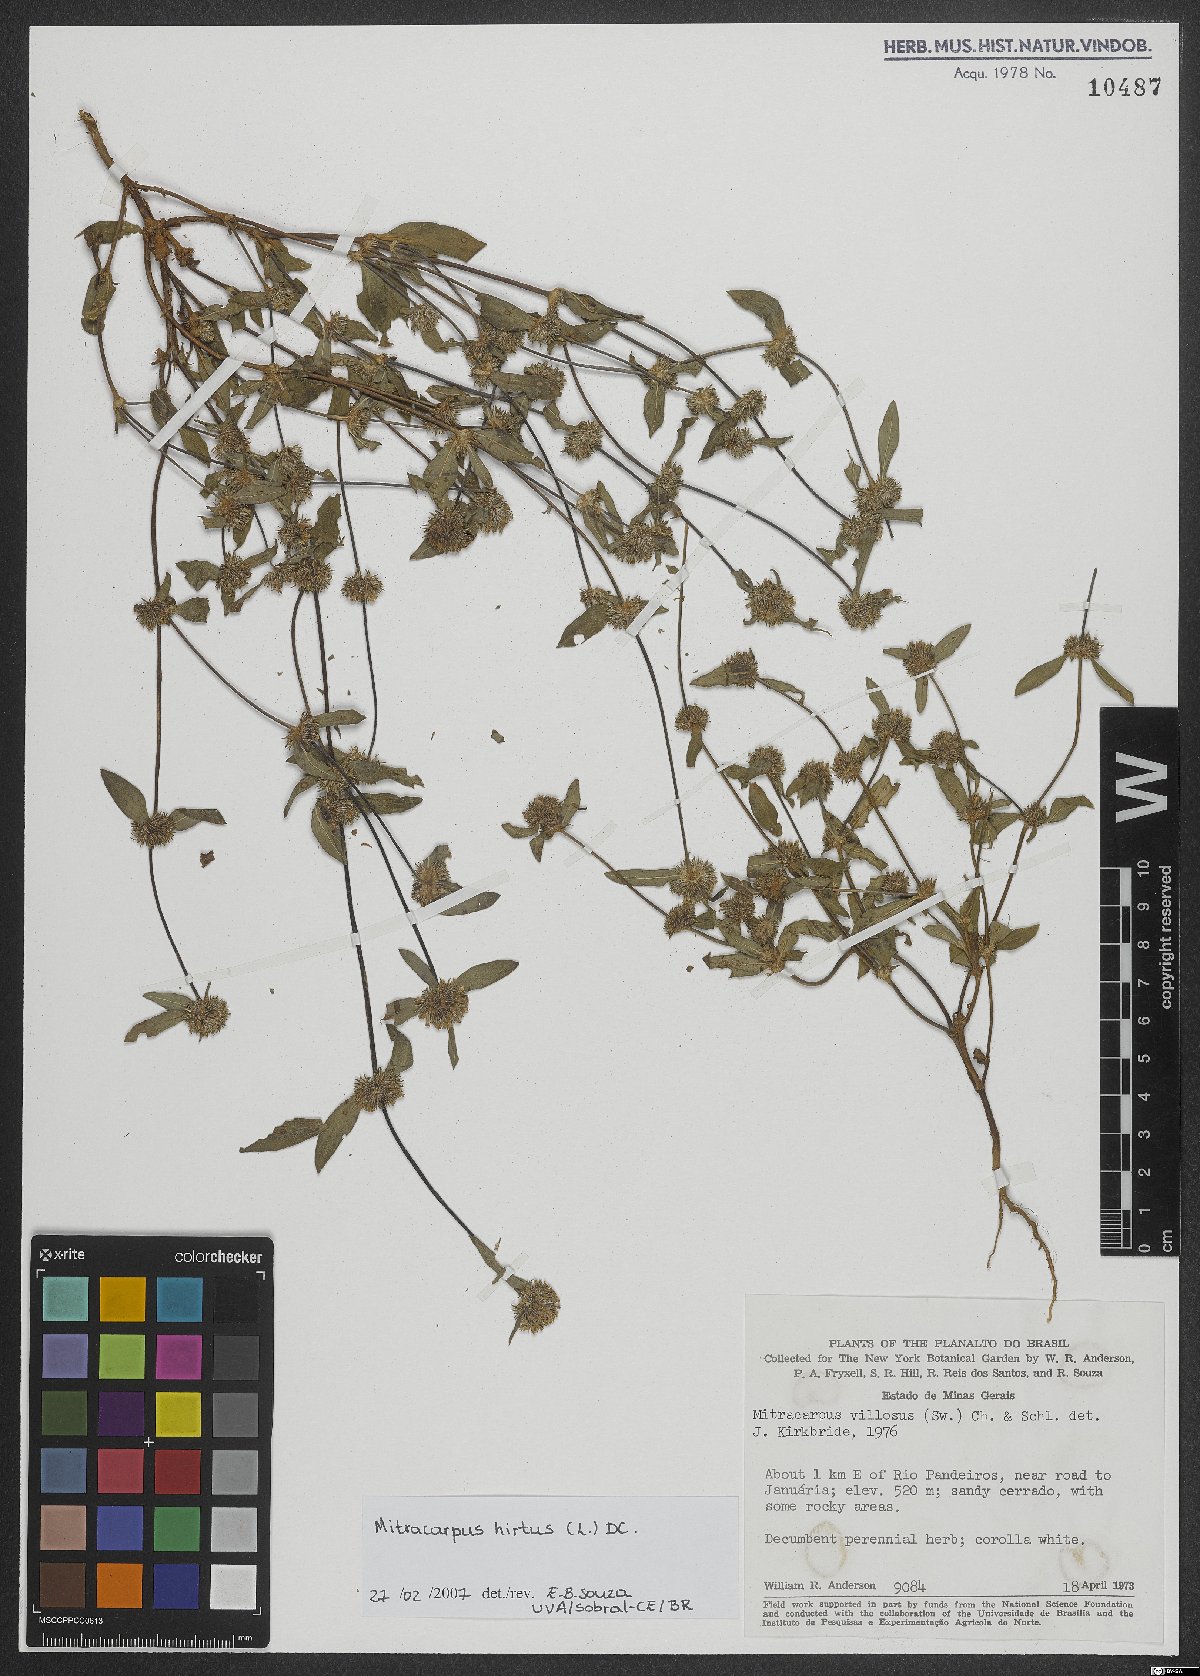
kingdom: Plantae
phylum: Tracheophyta
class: Magnoliopsida
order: Gentianales
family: Rubiaceae
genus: Mitracarpus
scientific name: Mitracarpus hirtus
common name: Tropical girdlepod
